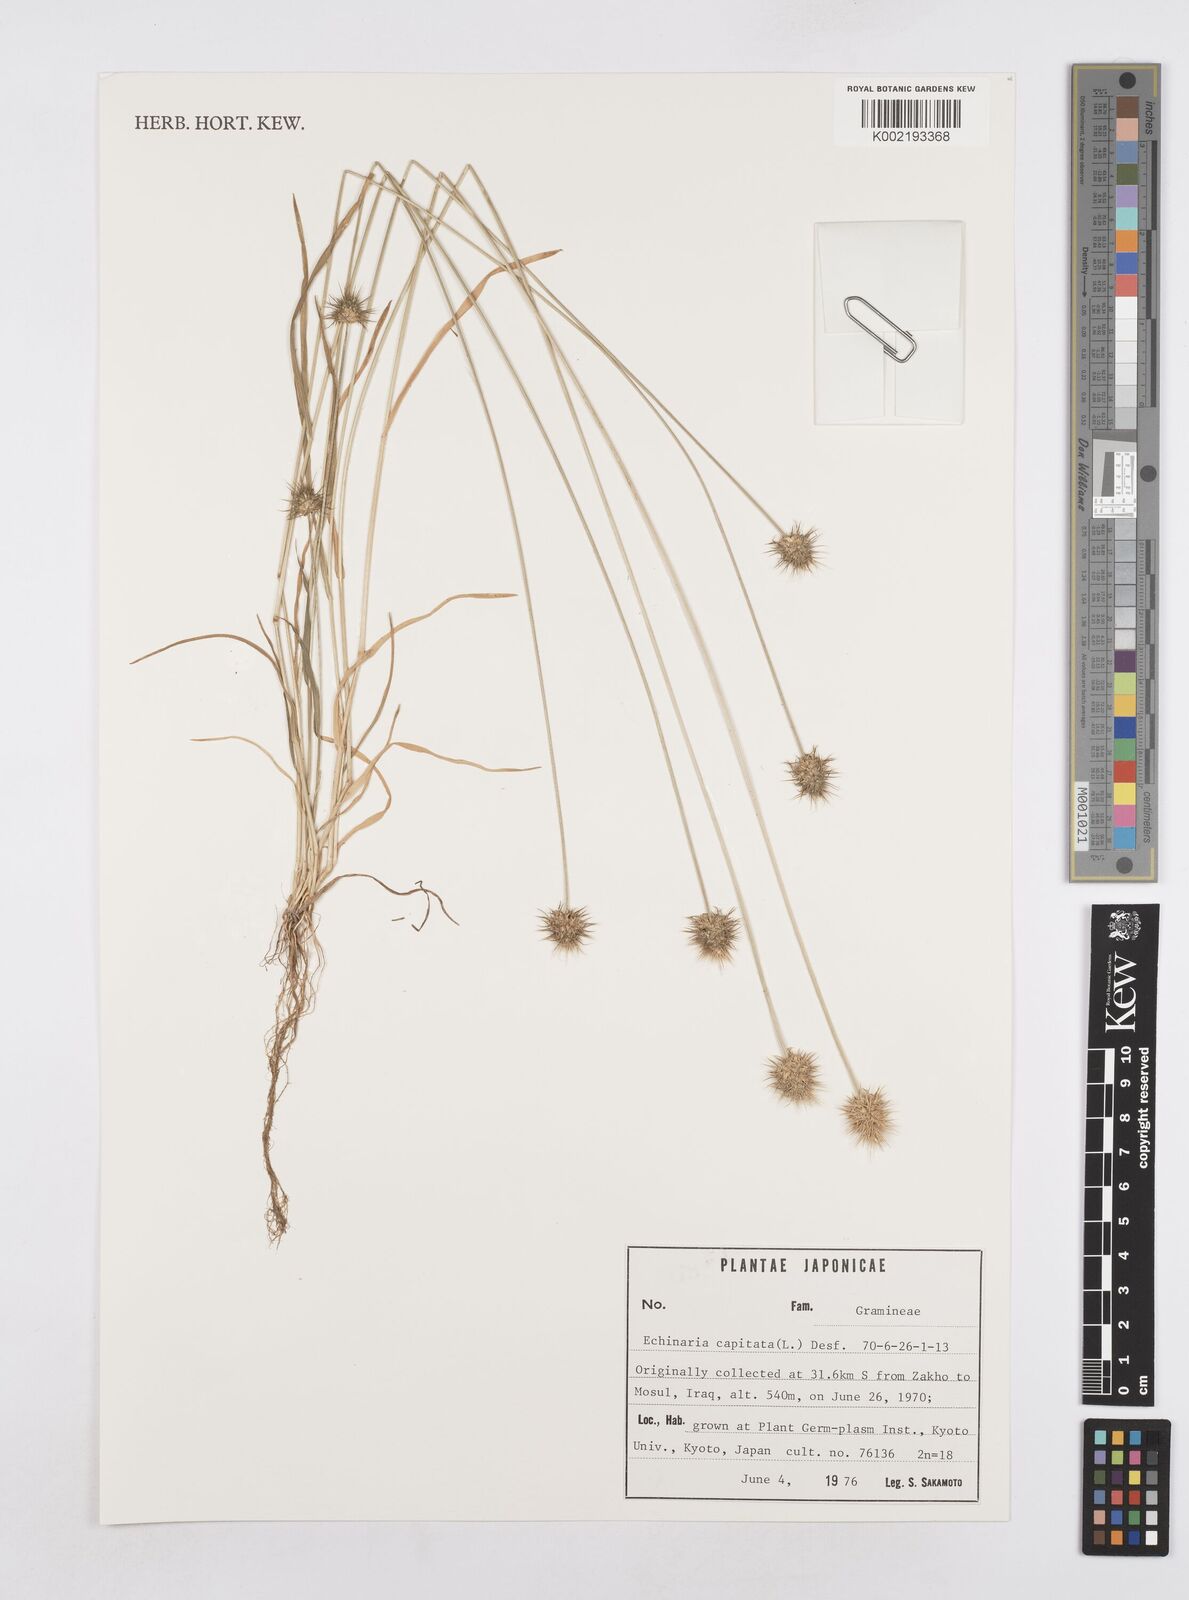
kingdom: Plantae
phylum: Tracheophyta
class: Liliopsida
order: Poales
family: Poaceae
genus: Echinaria
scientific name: Echinaria capitata
